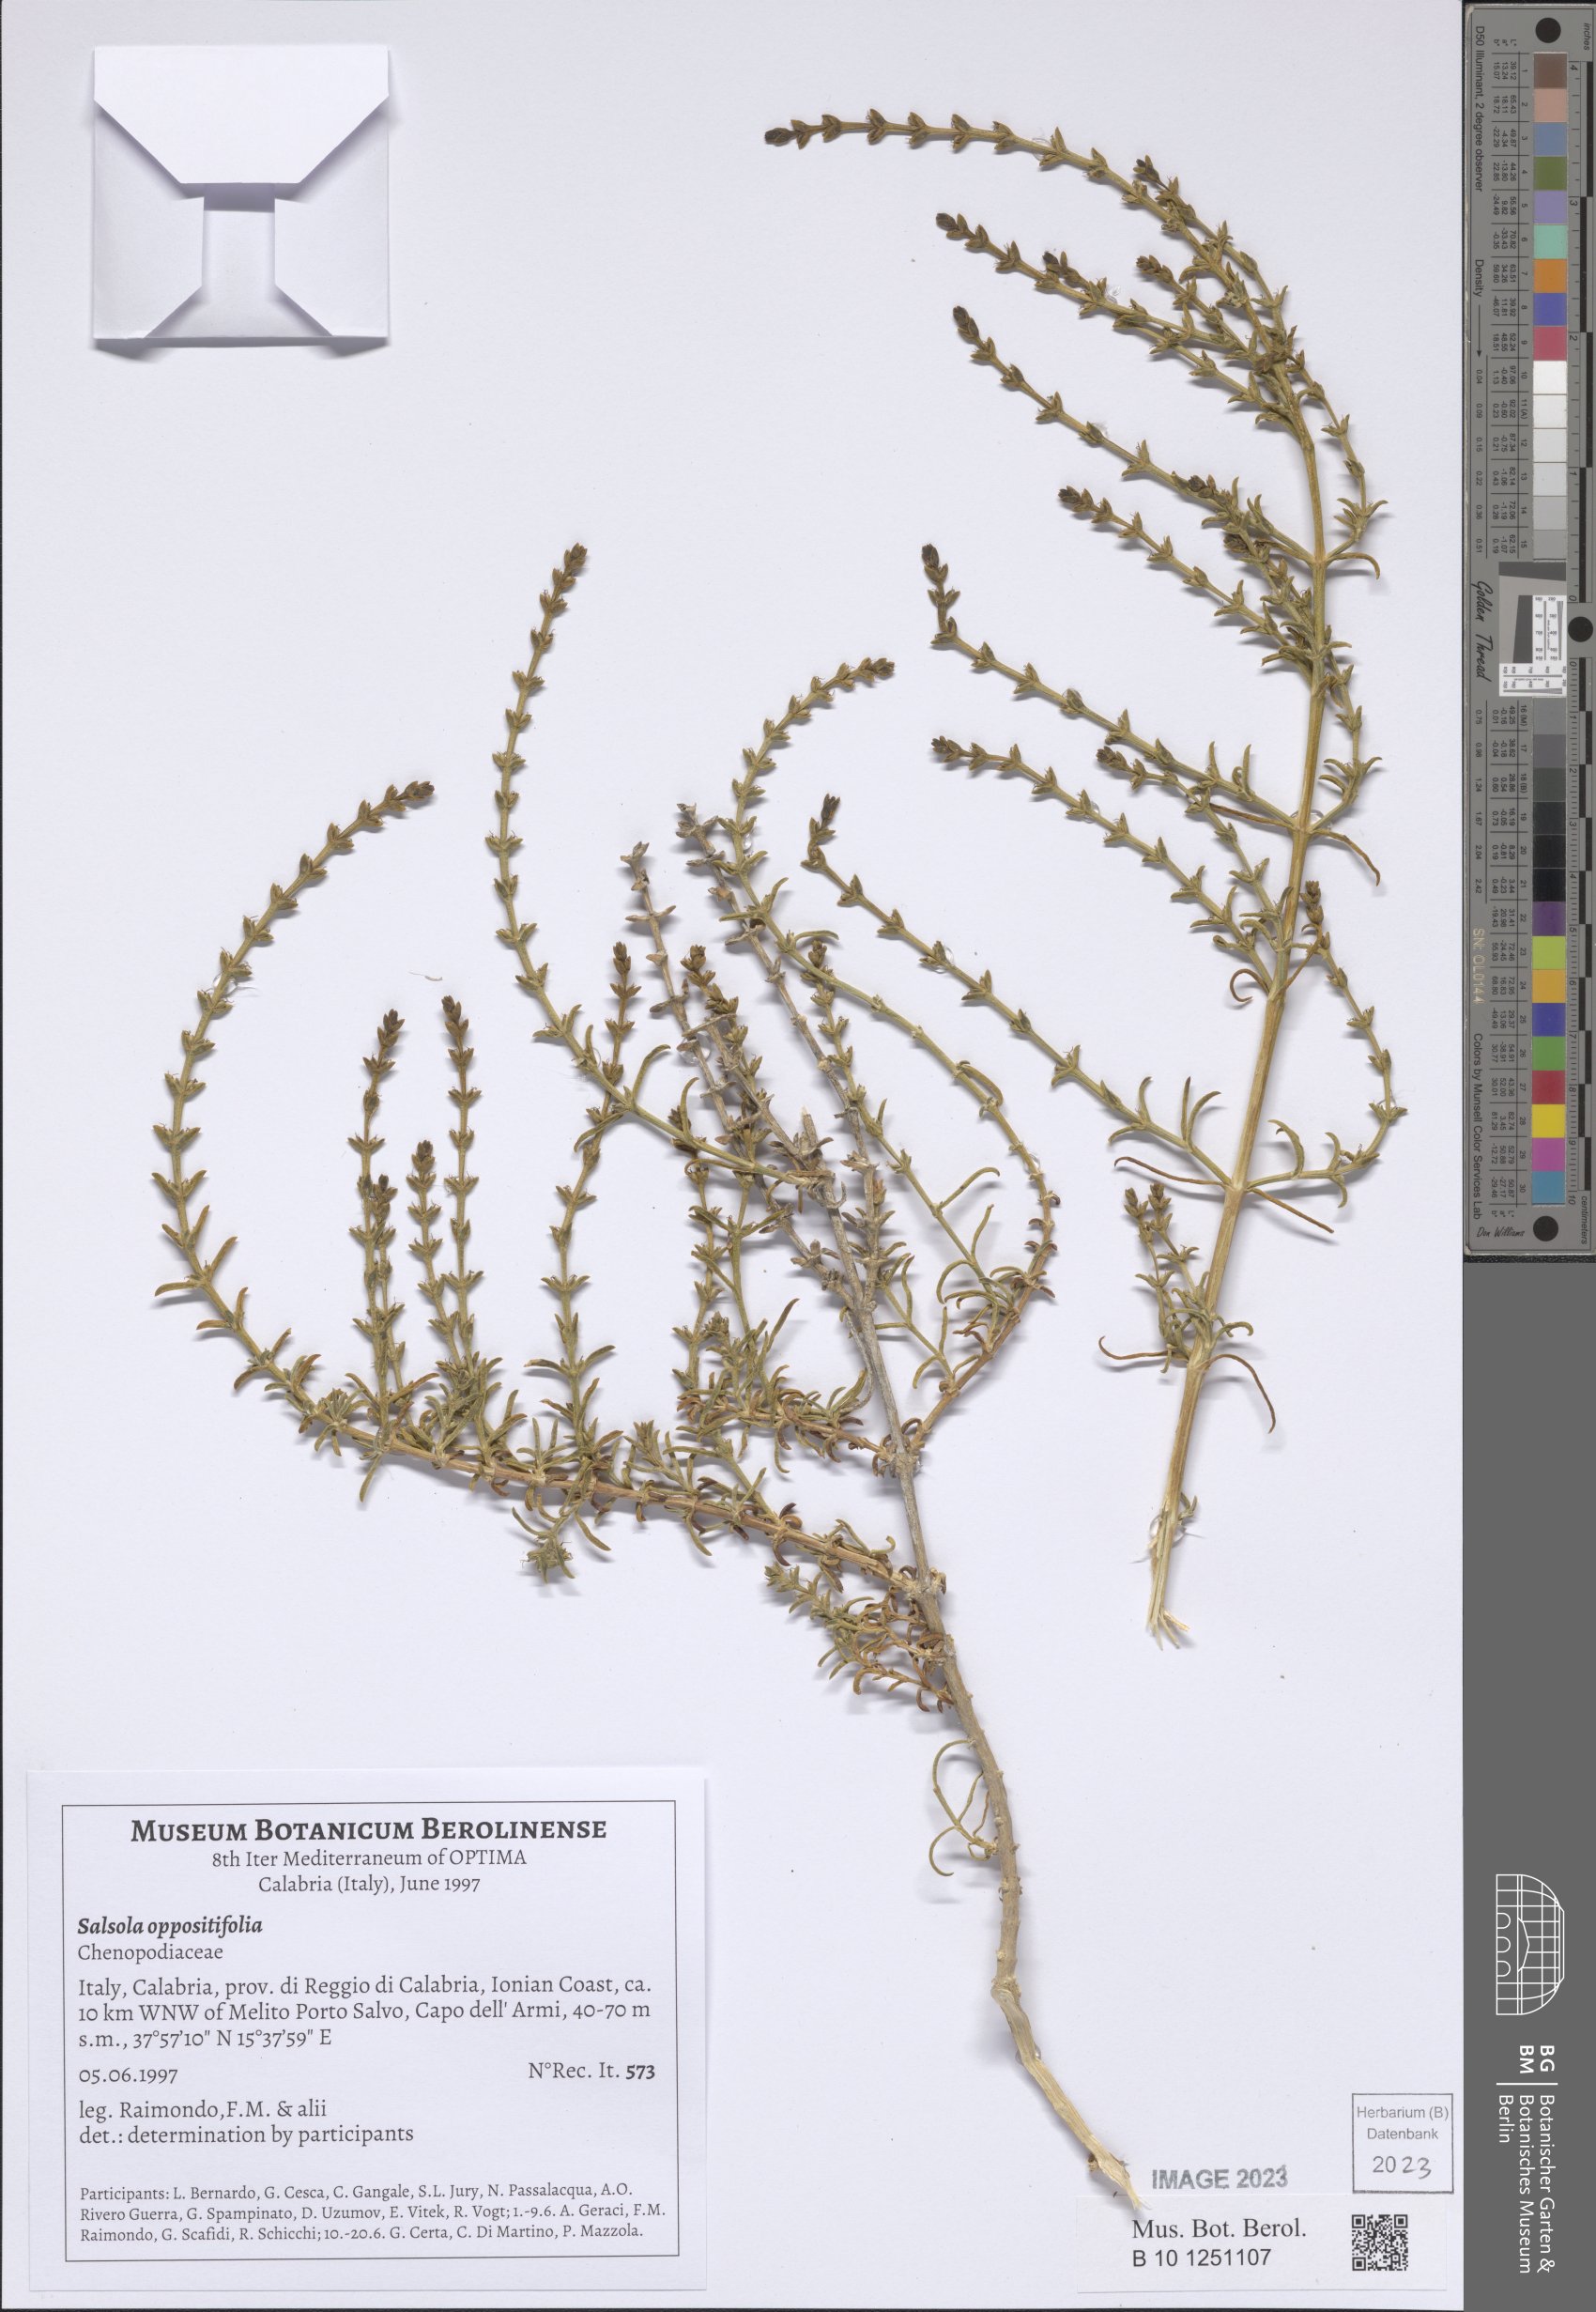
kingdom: Plantae
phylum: Tracheophyta
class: Magnoliopsida
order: Caryophyllales
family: Amaranthaceae
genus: Soda
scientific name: Soda oppositifolia
